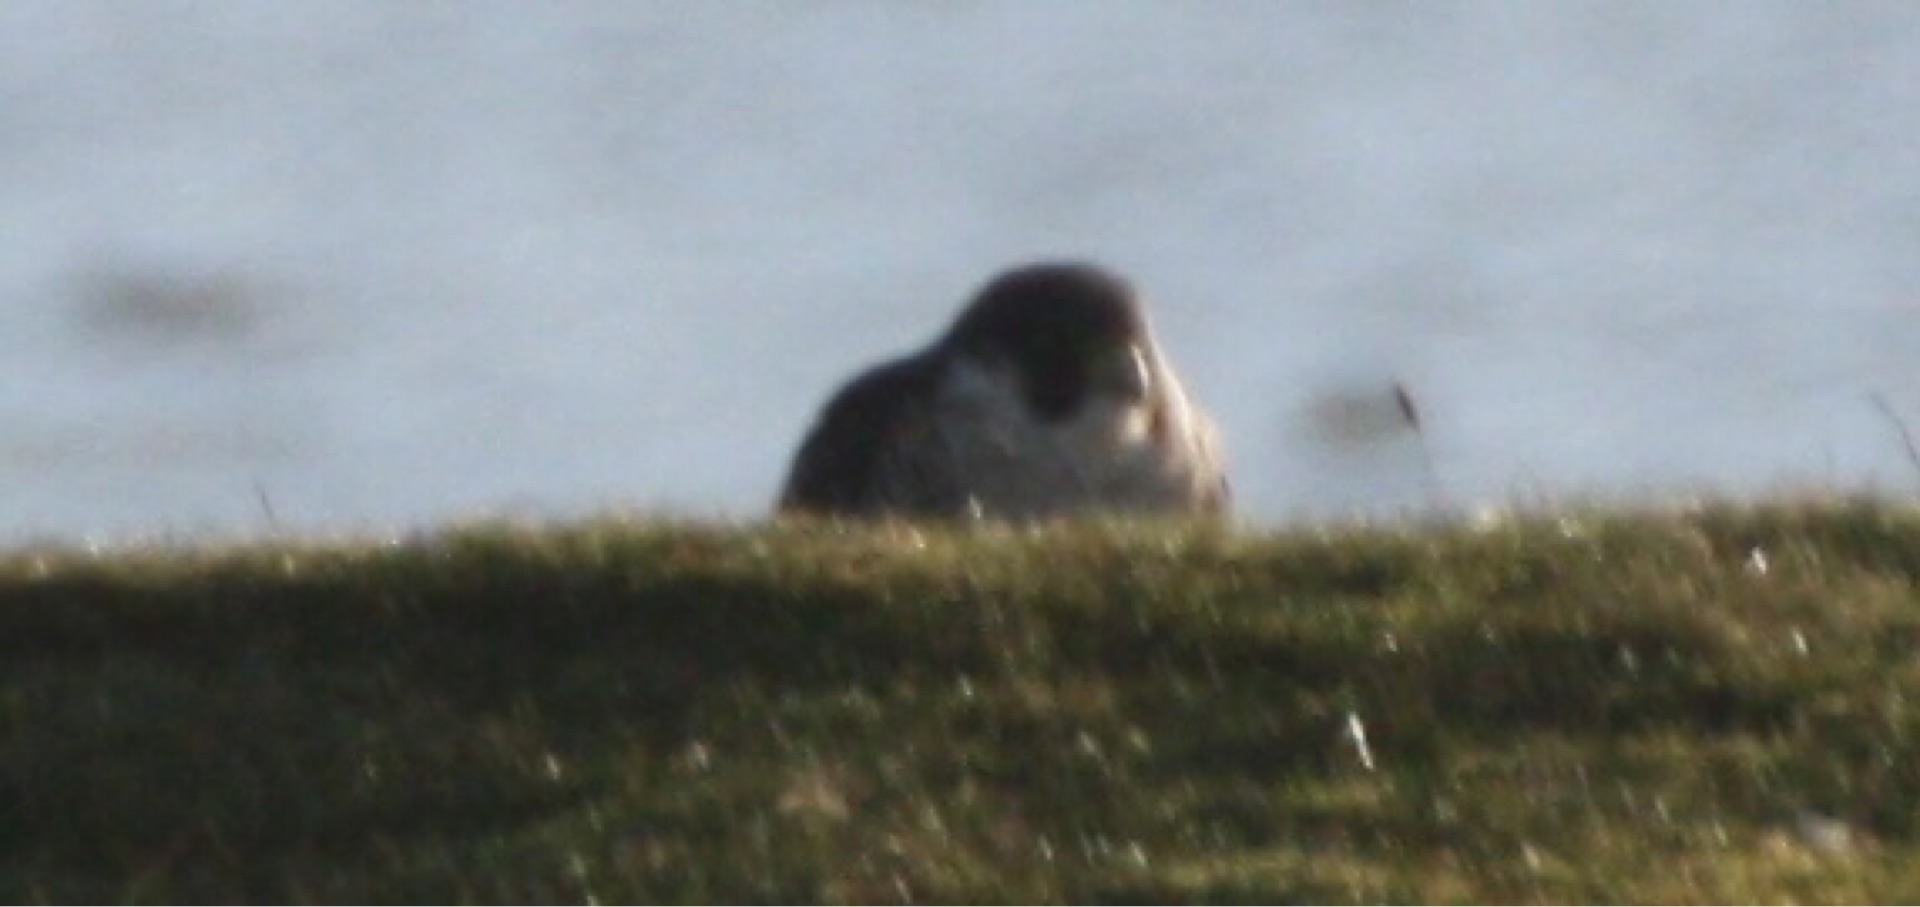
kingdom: Animalia
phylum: Chordata
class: Aves
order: Falconiformes
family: Falconidae
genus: Falco
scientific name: Falco peregrinus
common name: Vandrefalk
